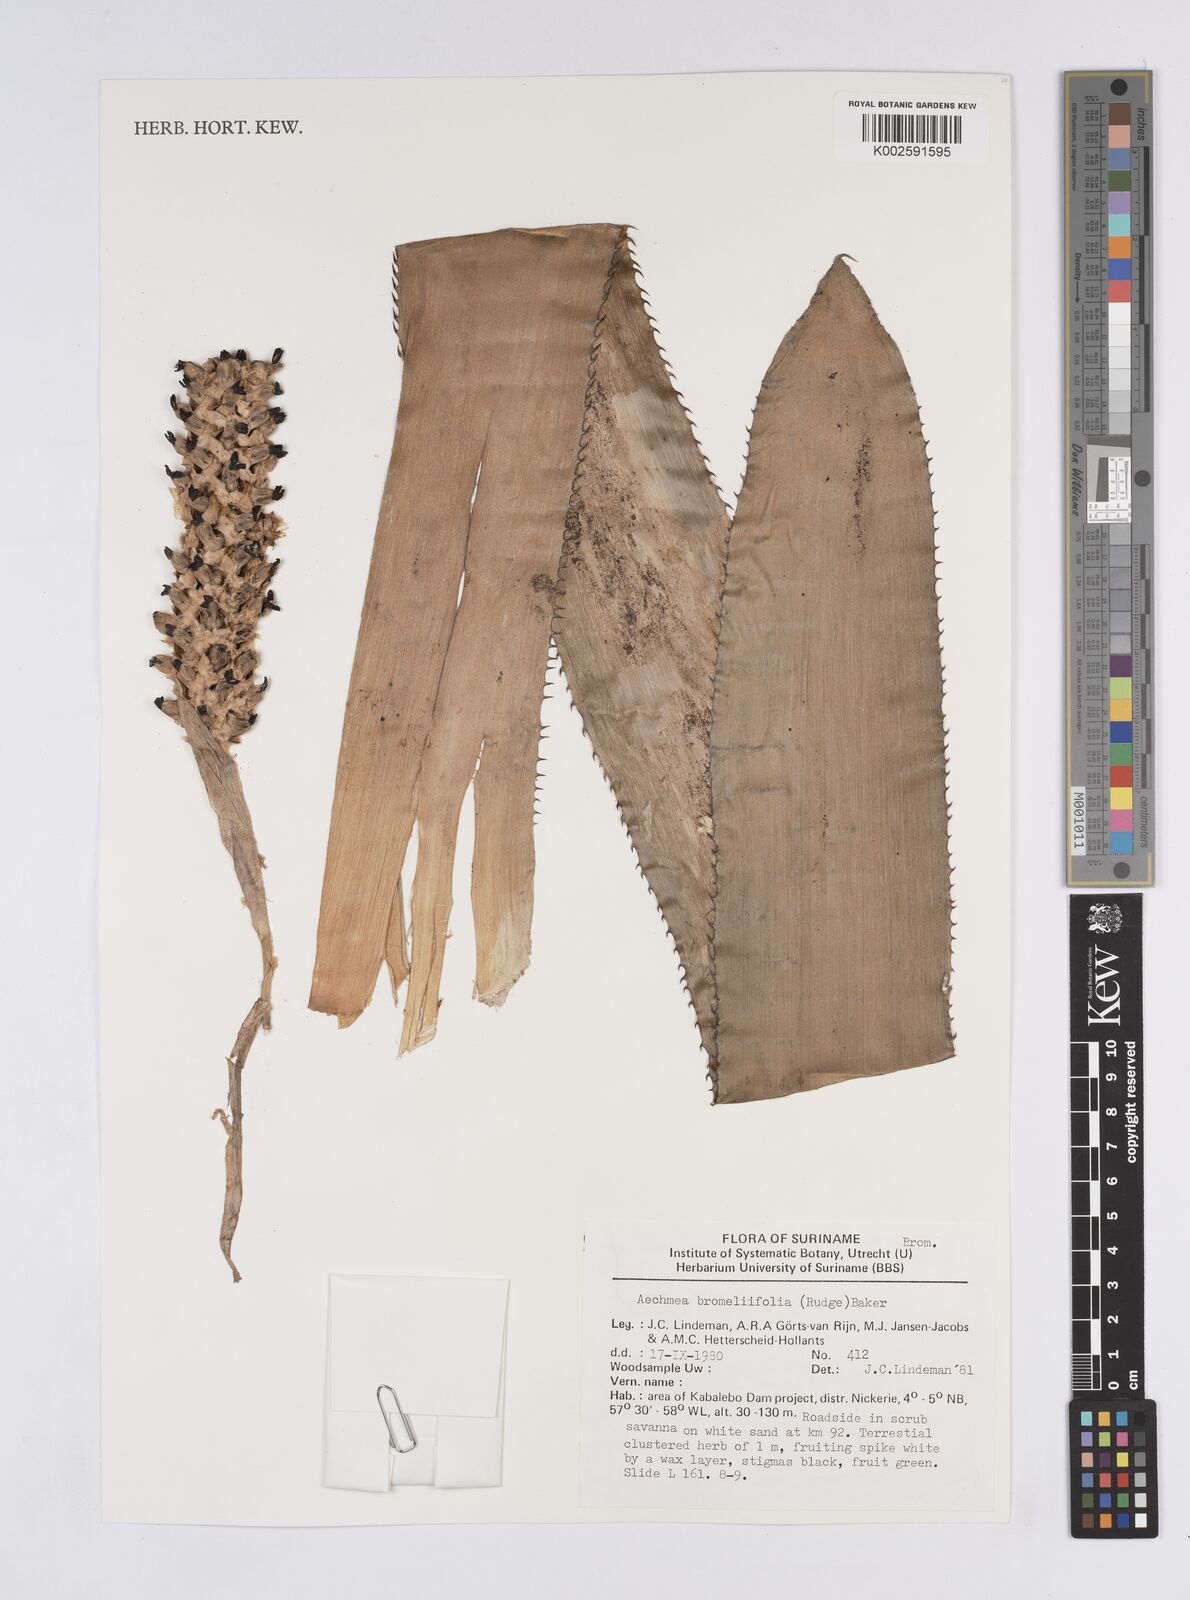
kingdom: Plantae
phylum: Tracheophyta
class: Liliopsida
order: Poales
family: Bromeliaceae
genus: Aechmea
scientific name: Aechmea bromeliifolia
